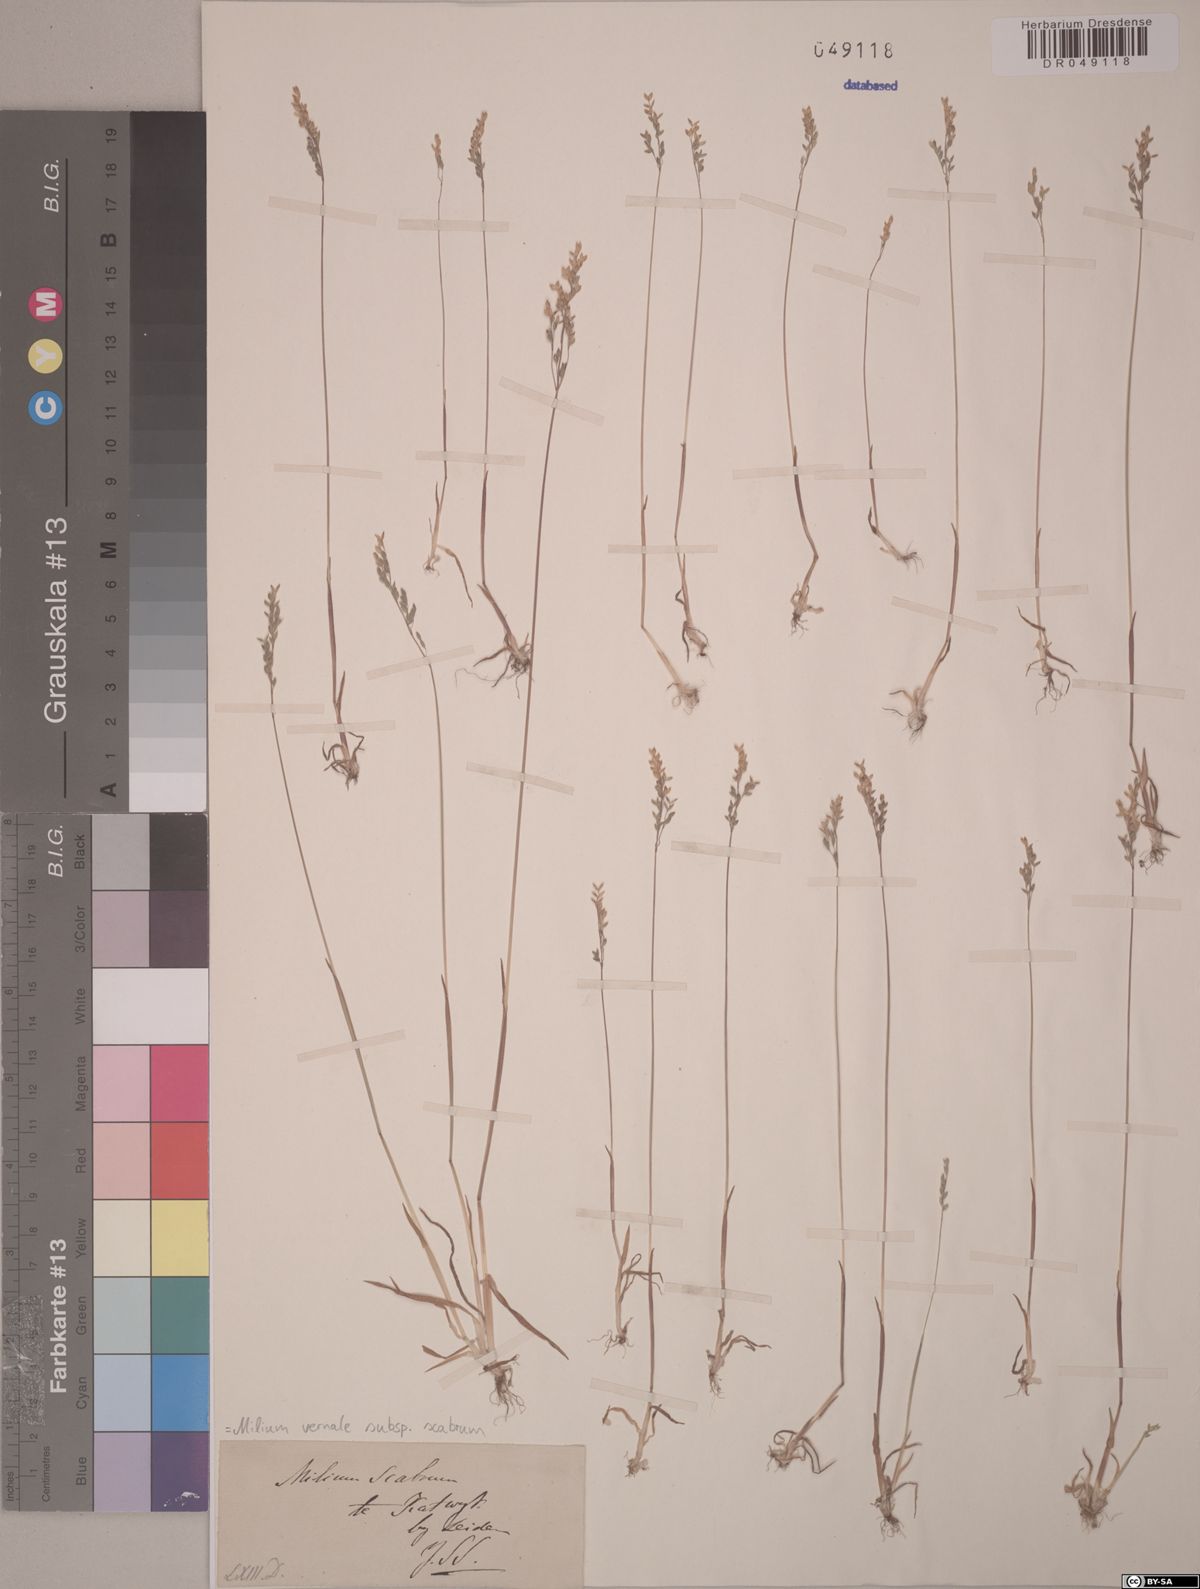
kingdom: Plantae
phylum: Tracheophyta
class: Liliopsida
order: Poales
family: Poaceae
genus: Milium
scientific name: Milium vernale
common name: Early millet
